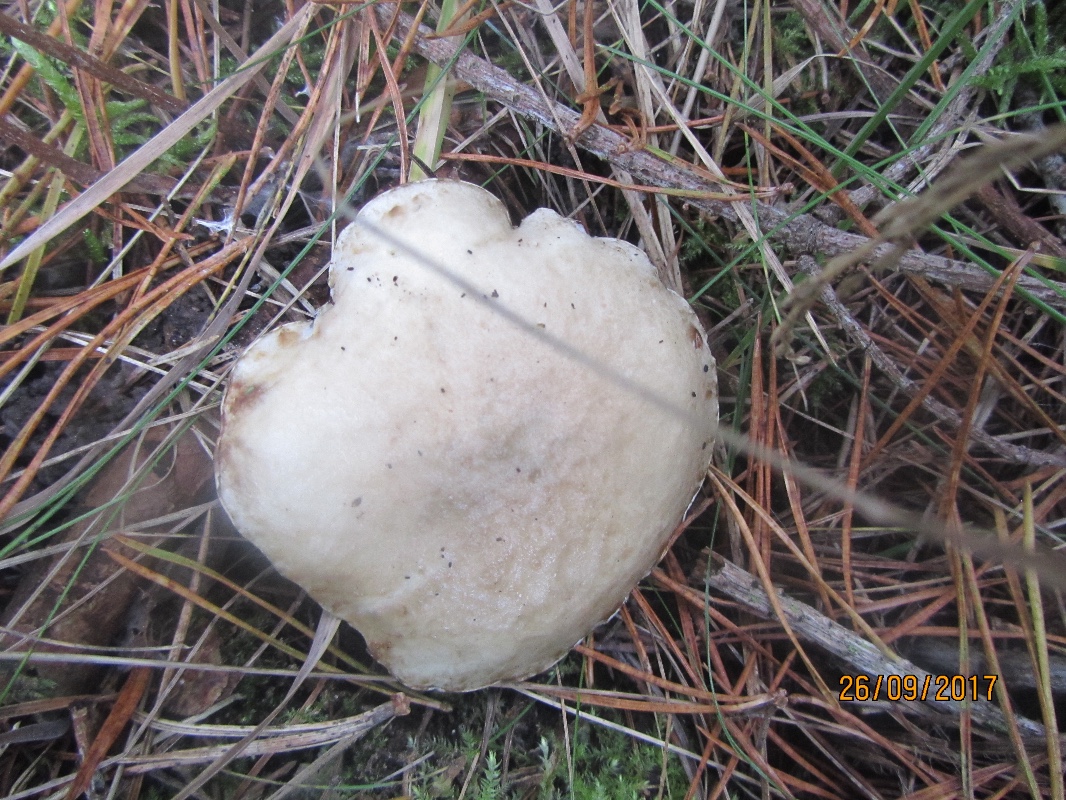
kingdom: Fungi
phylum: Basidiomycota
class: Agaricomycetes
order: Boletales
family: Suillaceae
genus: Suillus
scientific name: Suillus viscidus
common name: olivengrå slimrørhat
